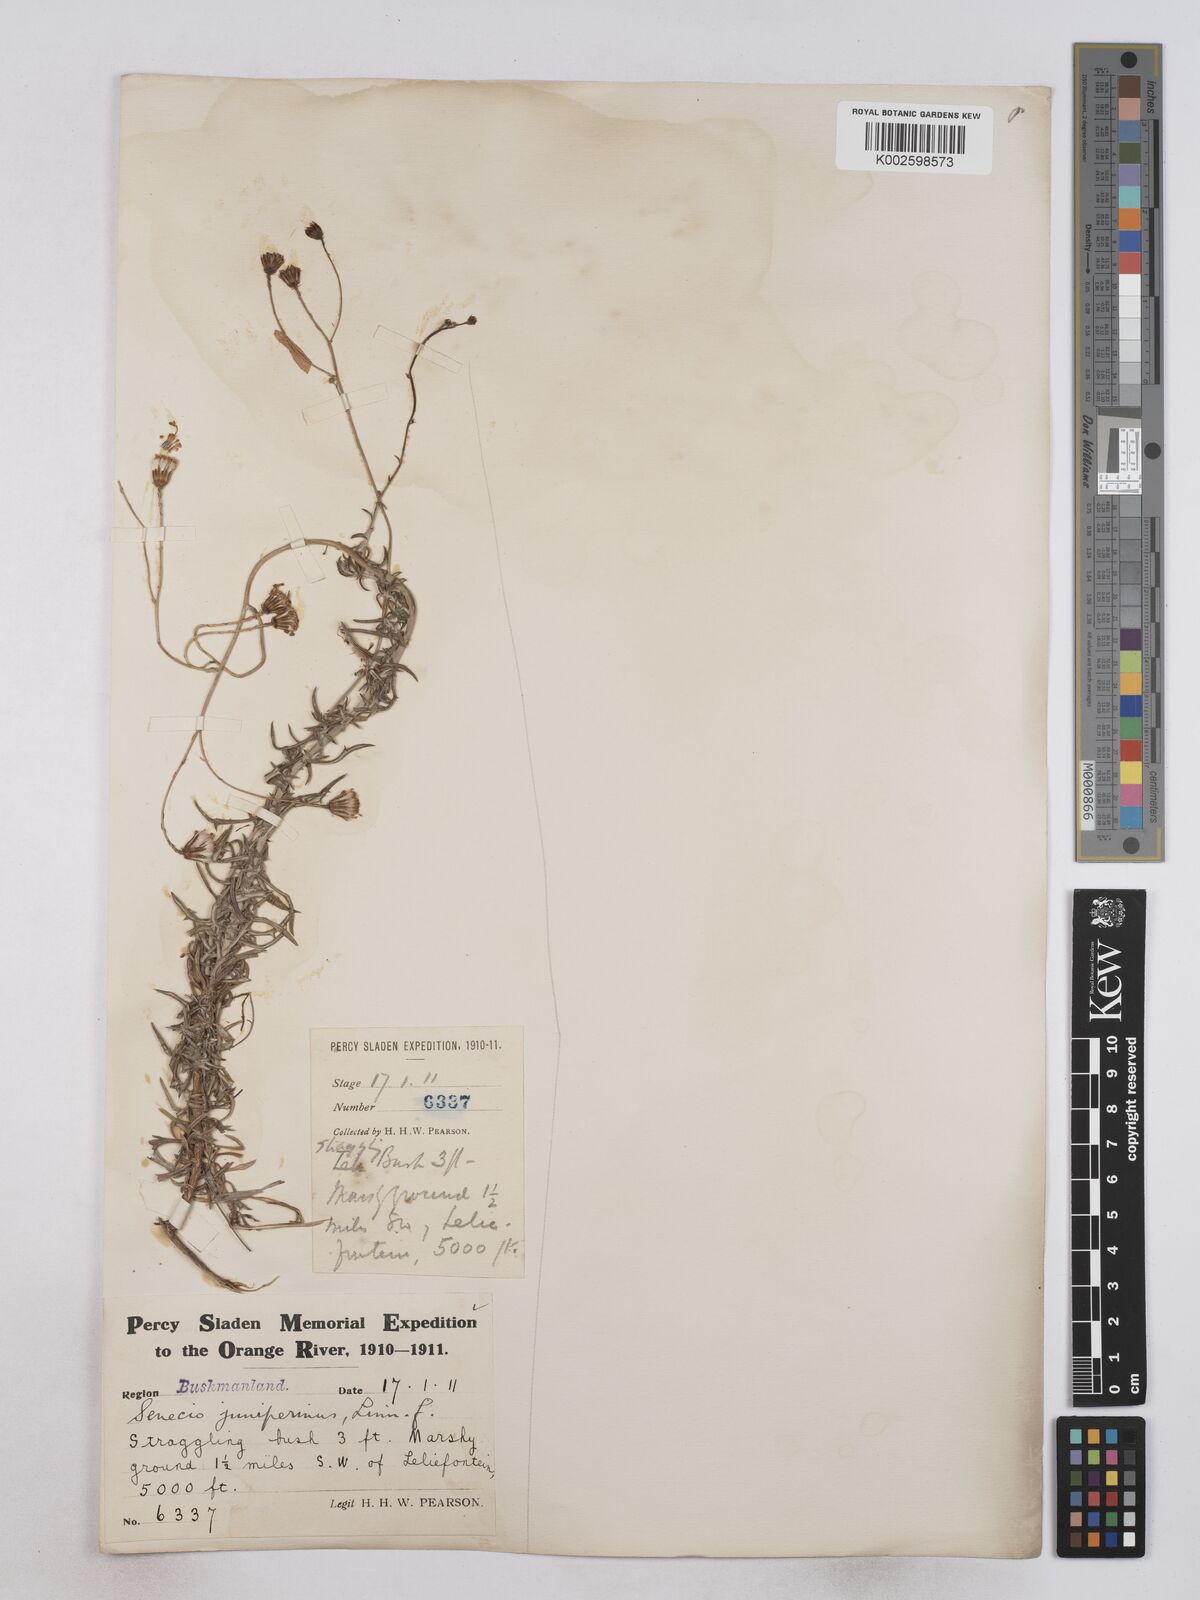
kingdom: Plantae
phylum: Tracheophyta
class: Magnoliopsida
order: Asterales
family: Asteraceae
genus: Senecio
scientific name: Senecio juniperinus
